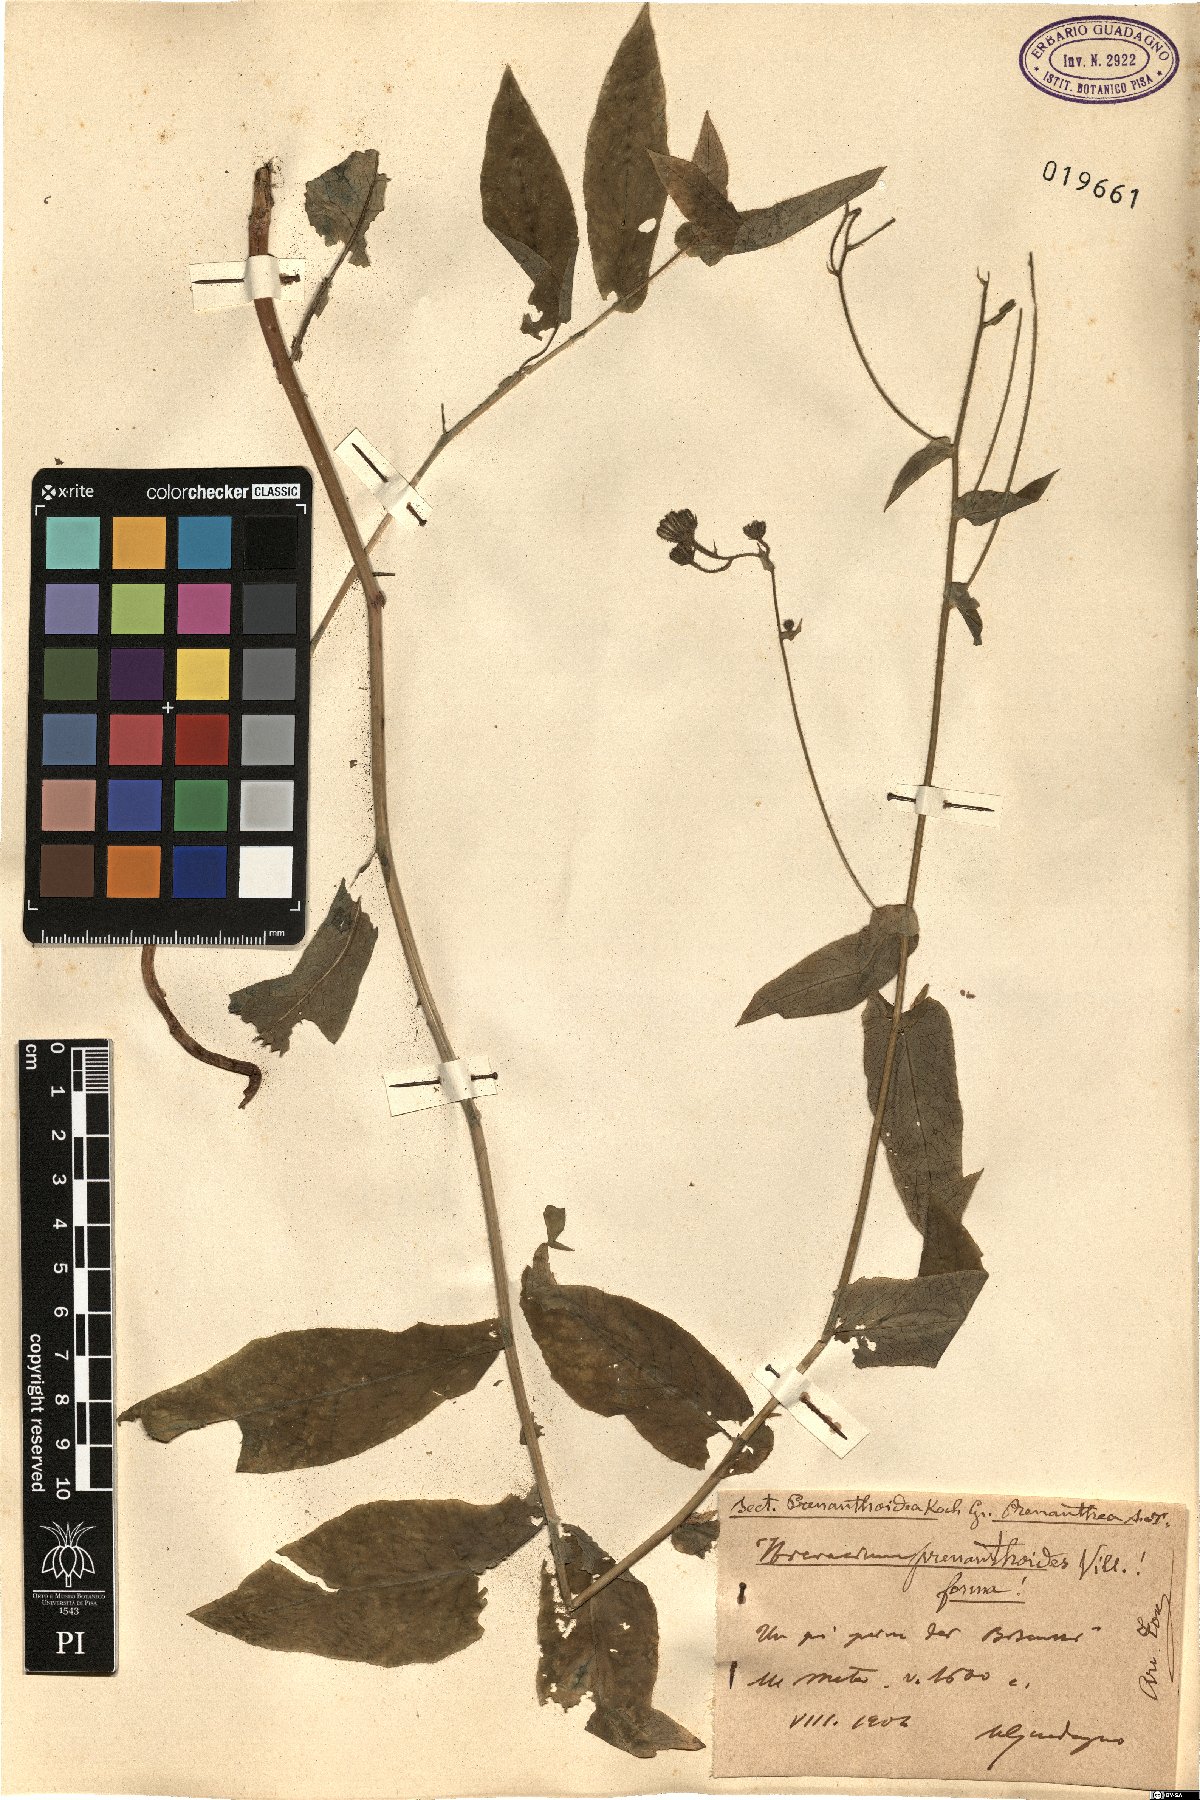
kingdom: Plantae
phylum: Tracheophyta
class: Magnoliopsida
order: Asterales
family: Asteraceae
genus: Hieracium
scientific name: Hieracium prenanthoides
